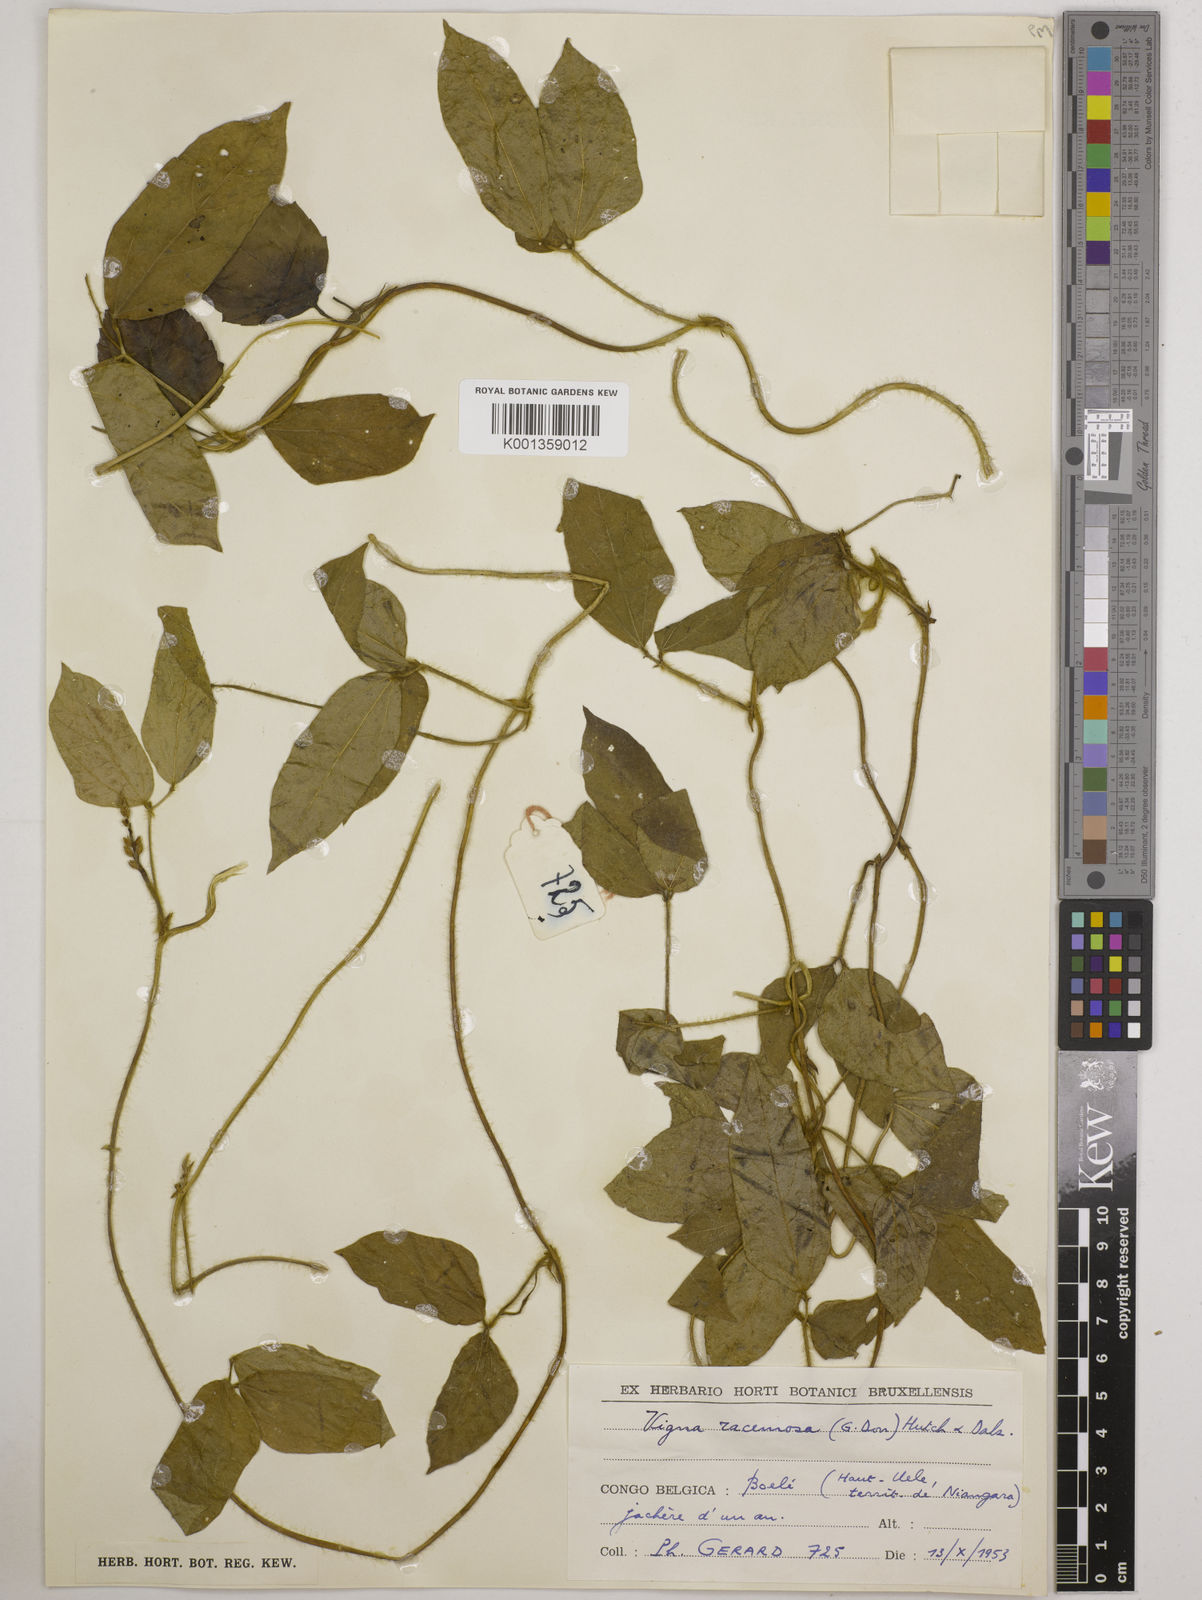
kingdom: Plantae
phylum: Tracheophyta
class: Magnoliopsida
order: Fabales
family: Fabaceae
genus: Vigna
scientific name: Vigna racemosa
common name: Beans not eaten
